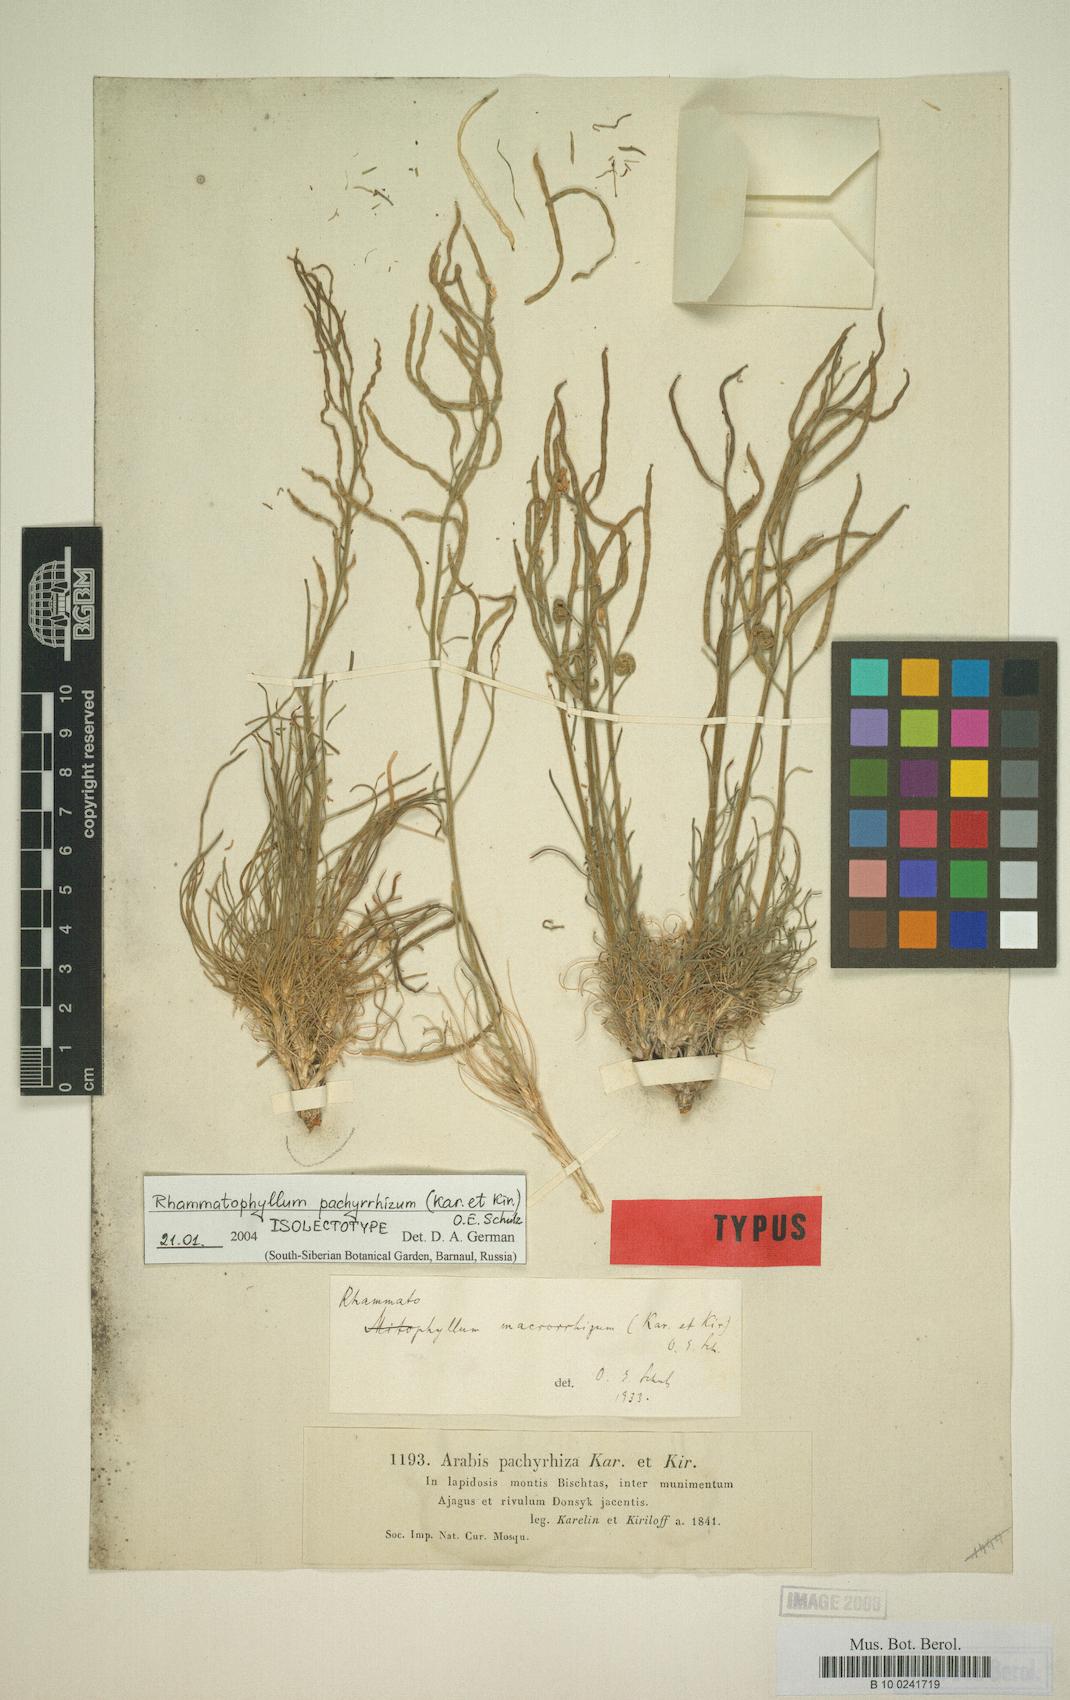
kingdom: Plantae
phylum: Tracheophyta
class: Magnoliopsida
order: Brassicales
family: Brassicaceae
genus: Rhammatophyllum
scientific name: Rhammatophyllum pachyrhizum
